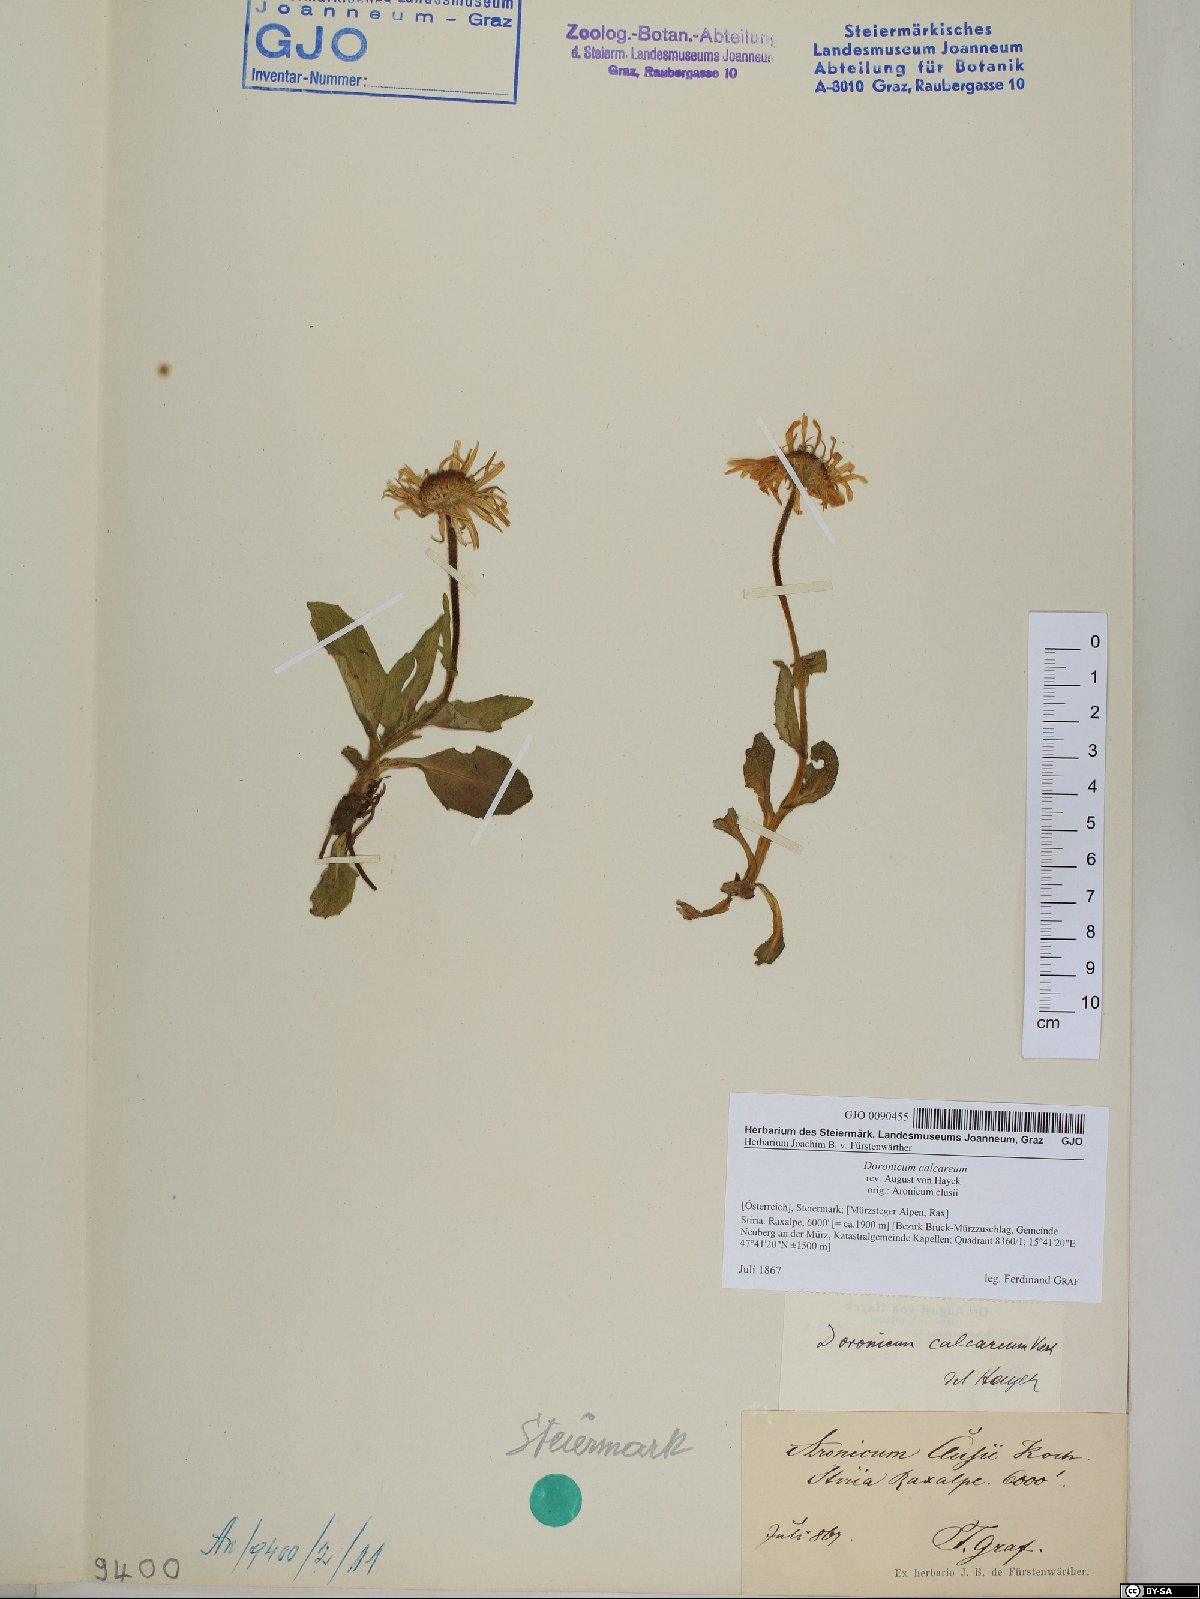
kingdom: Plantae
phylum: Tracheophyta
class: Magnoliopsida
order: Asterales
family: Asteraceae
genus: Doronicum
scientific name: Doronicum glaciale
